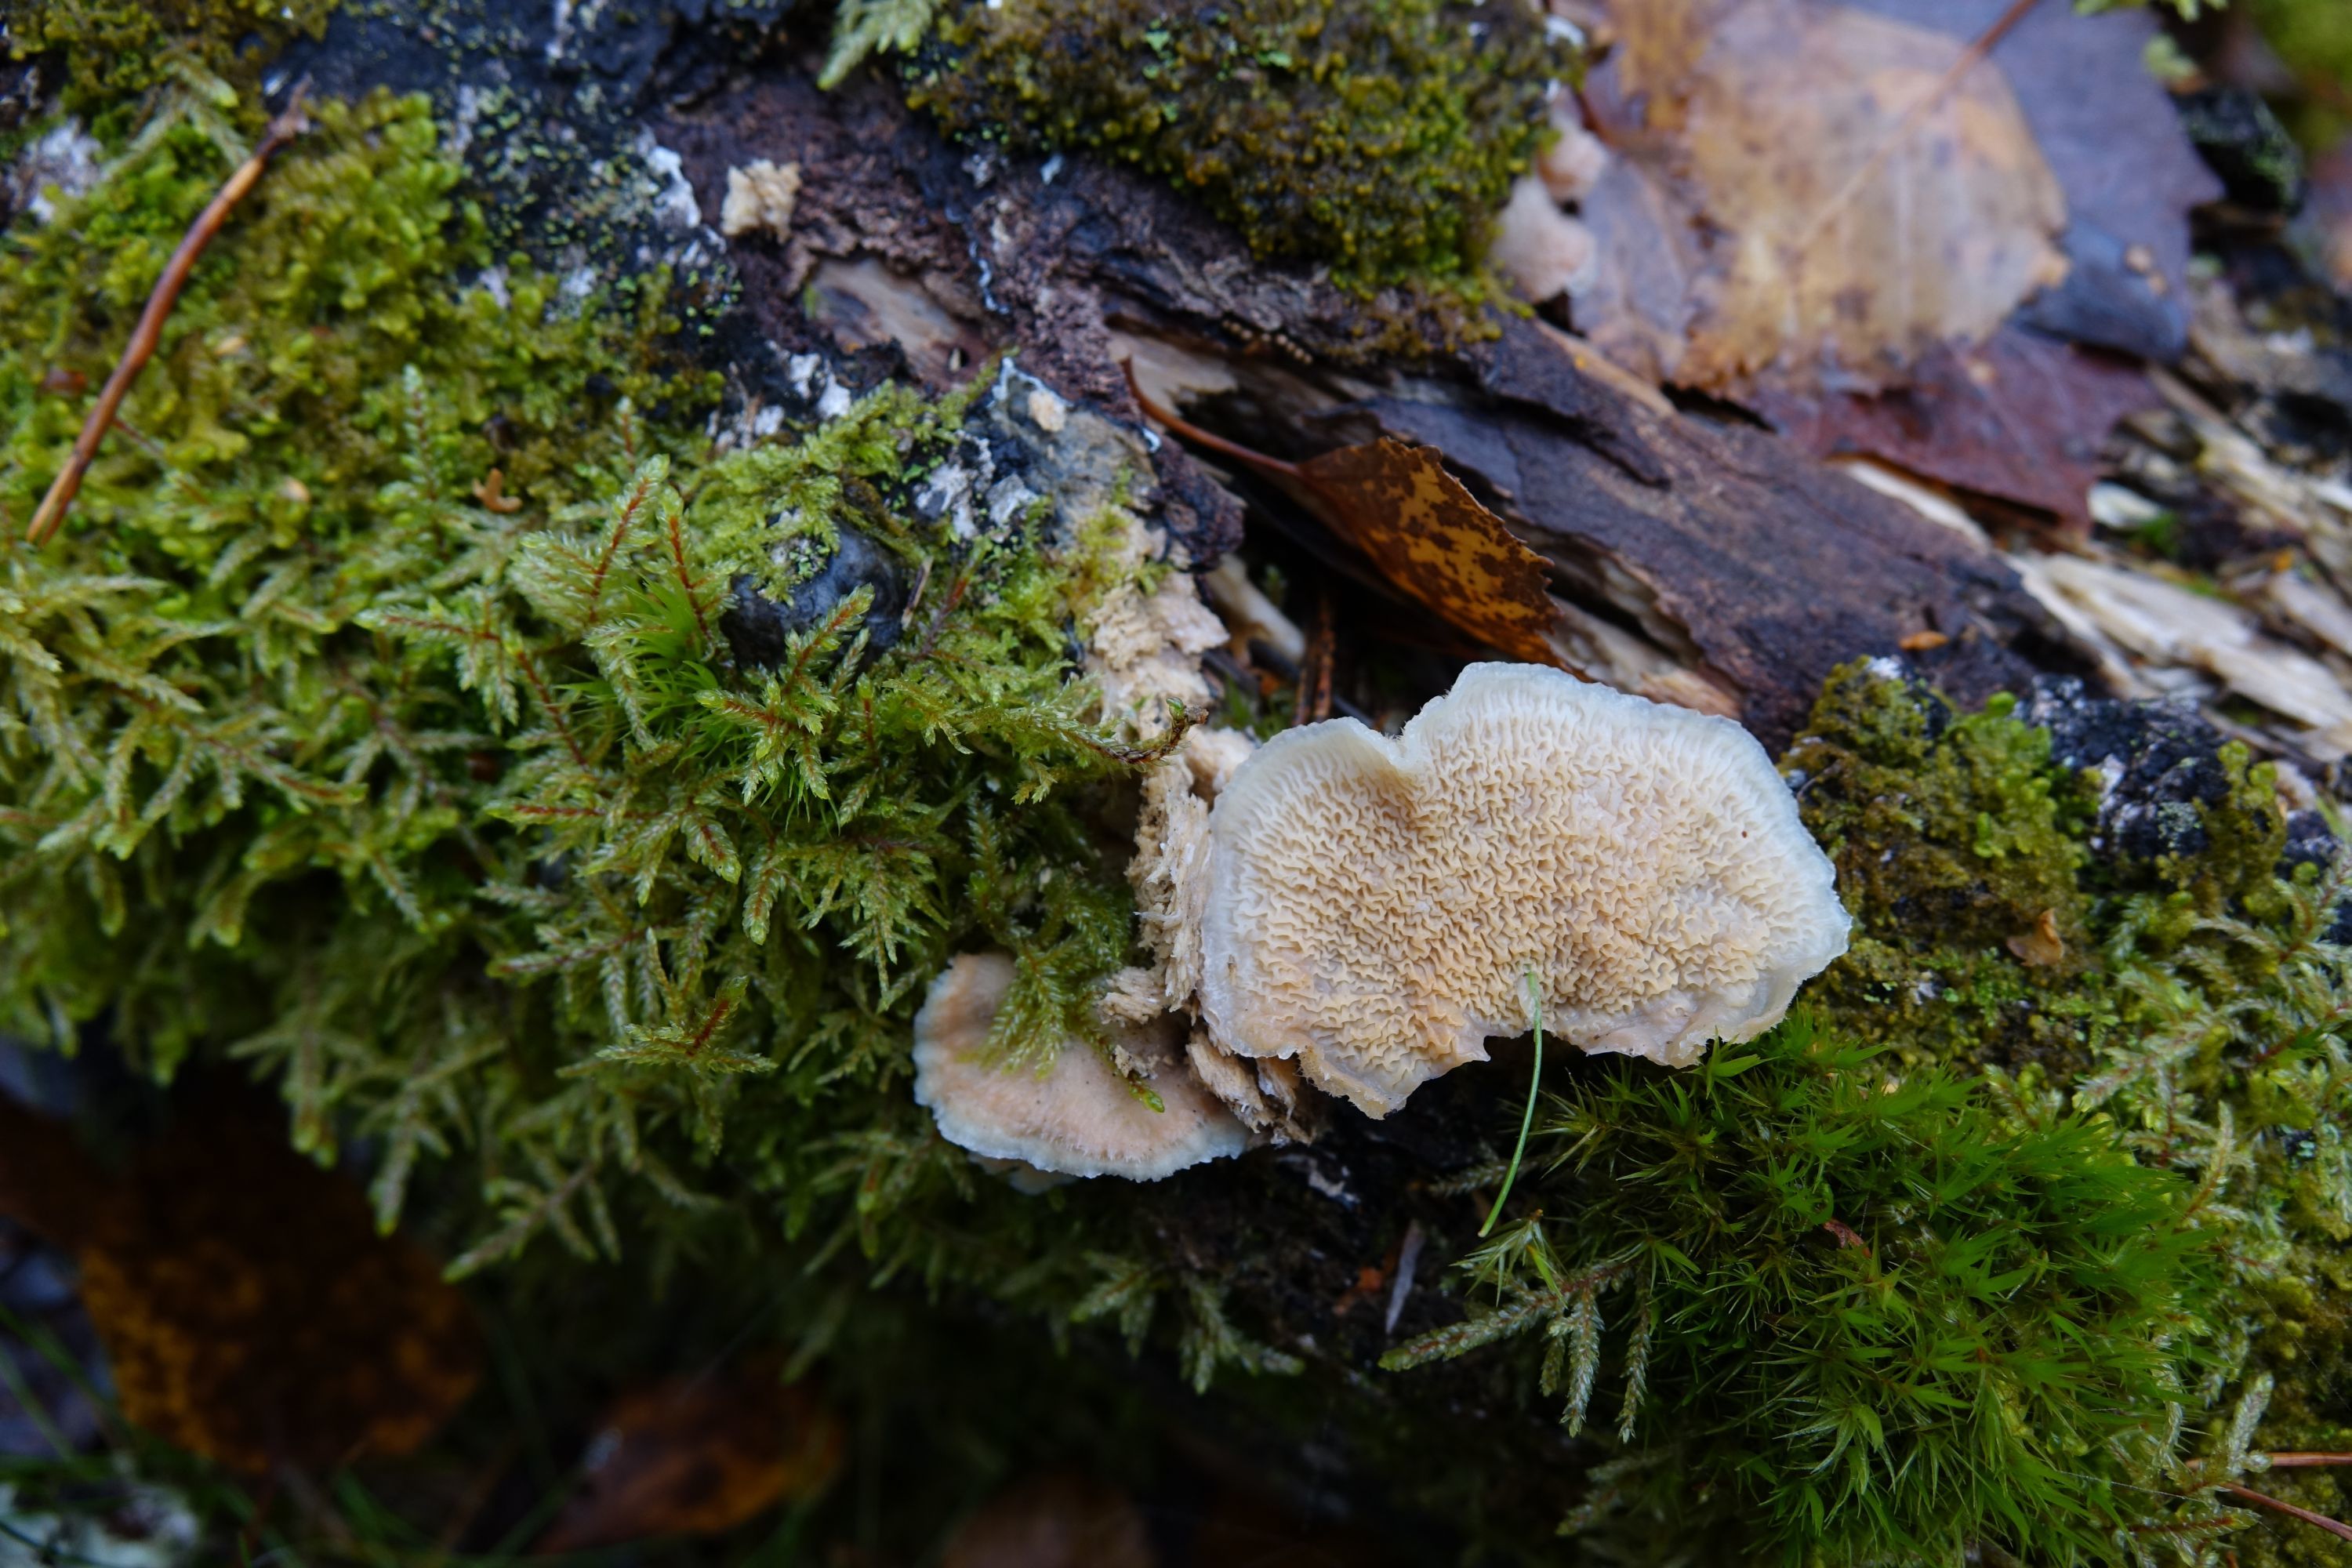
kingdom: Fungi
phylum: Basidiomycota
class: Agaricomycetes
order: Polyporales
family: Meruliaceae
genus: Phlebia
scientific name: Phlebia tremellosa
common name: Jelly rot
